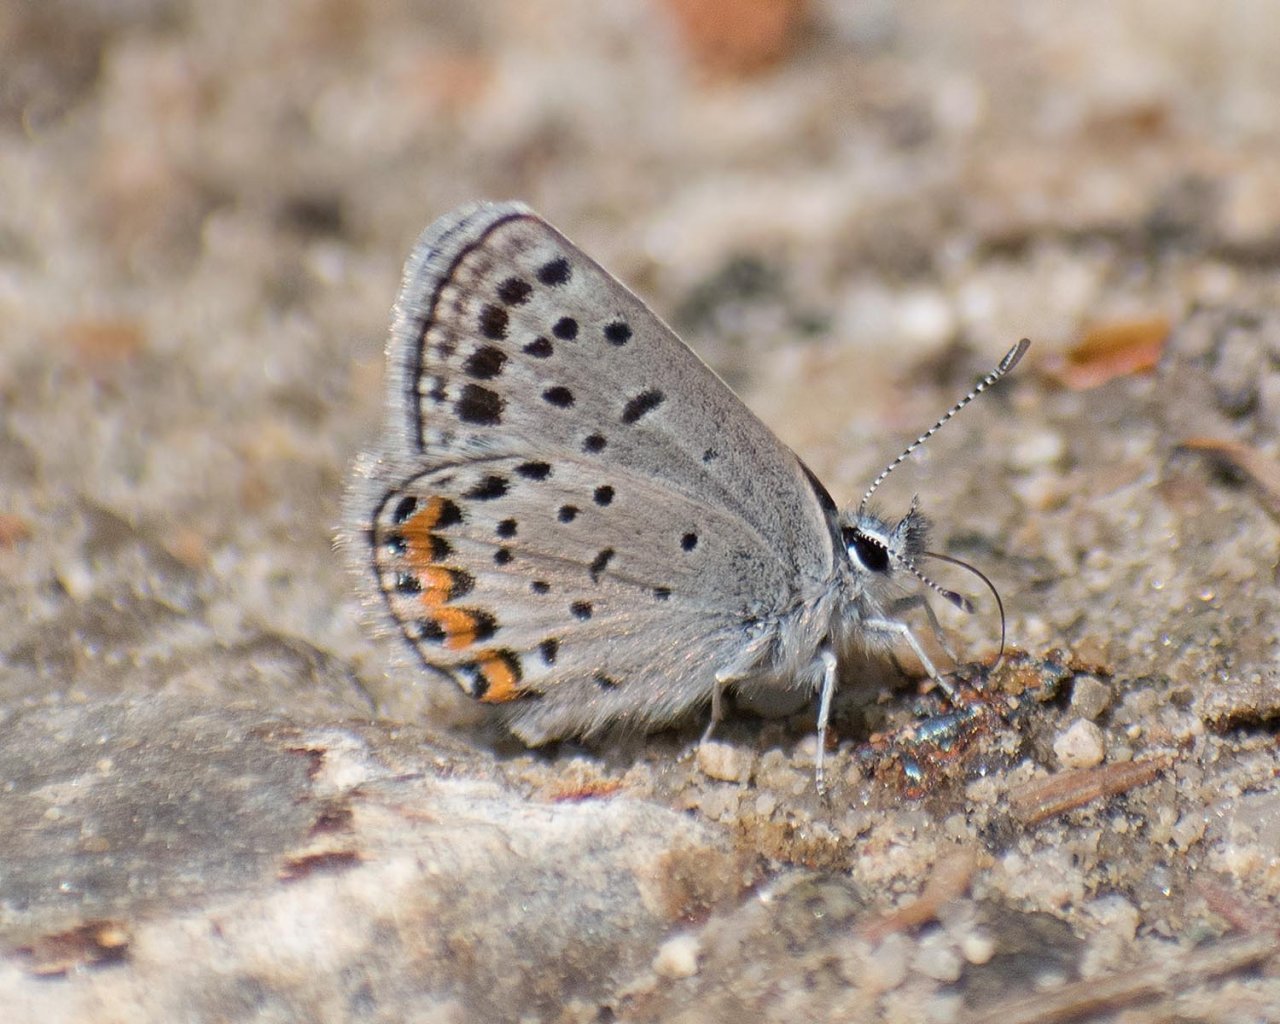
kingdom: Animalia
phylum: Arthropoda
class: Insecta
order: Lepidoptera
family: Lycaenidae
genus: Plebejus
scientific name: Plebejus lupini
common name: Lupine Blue
